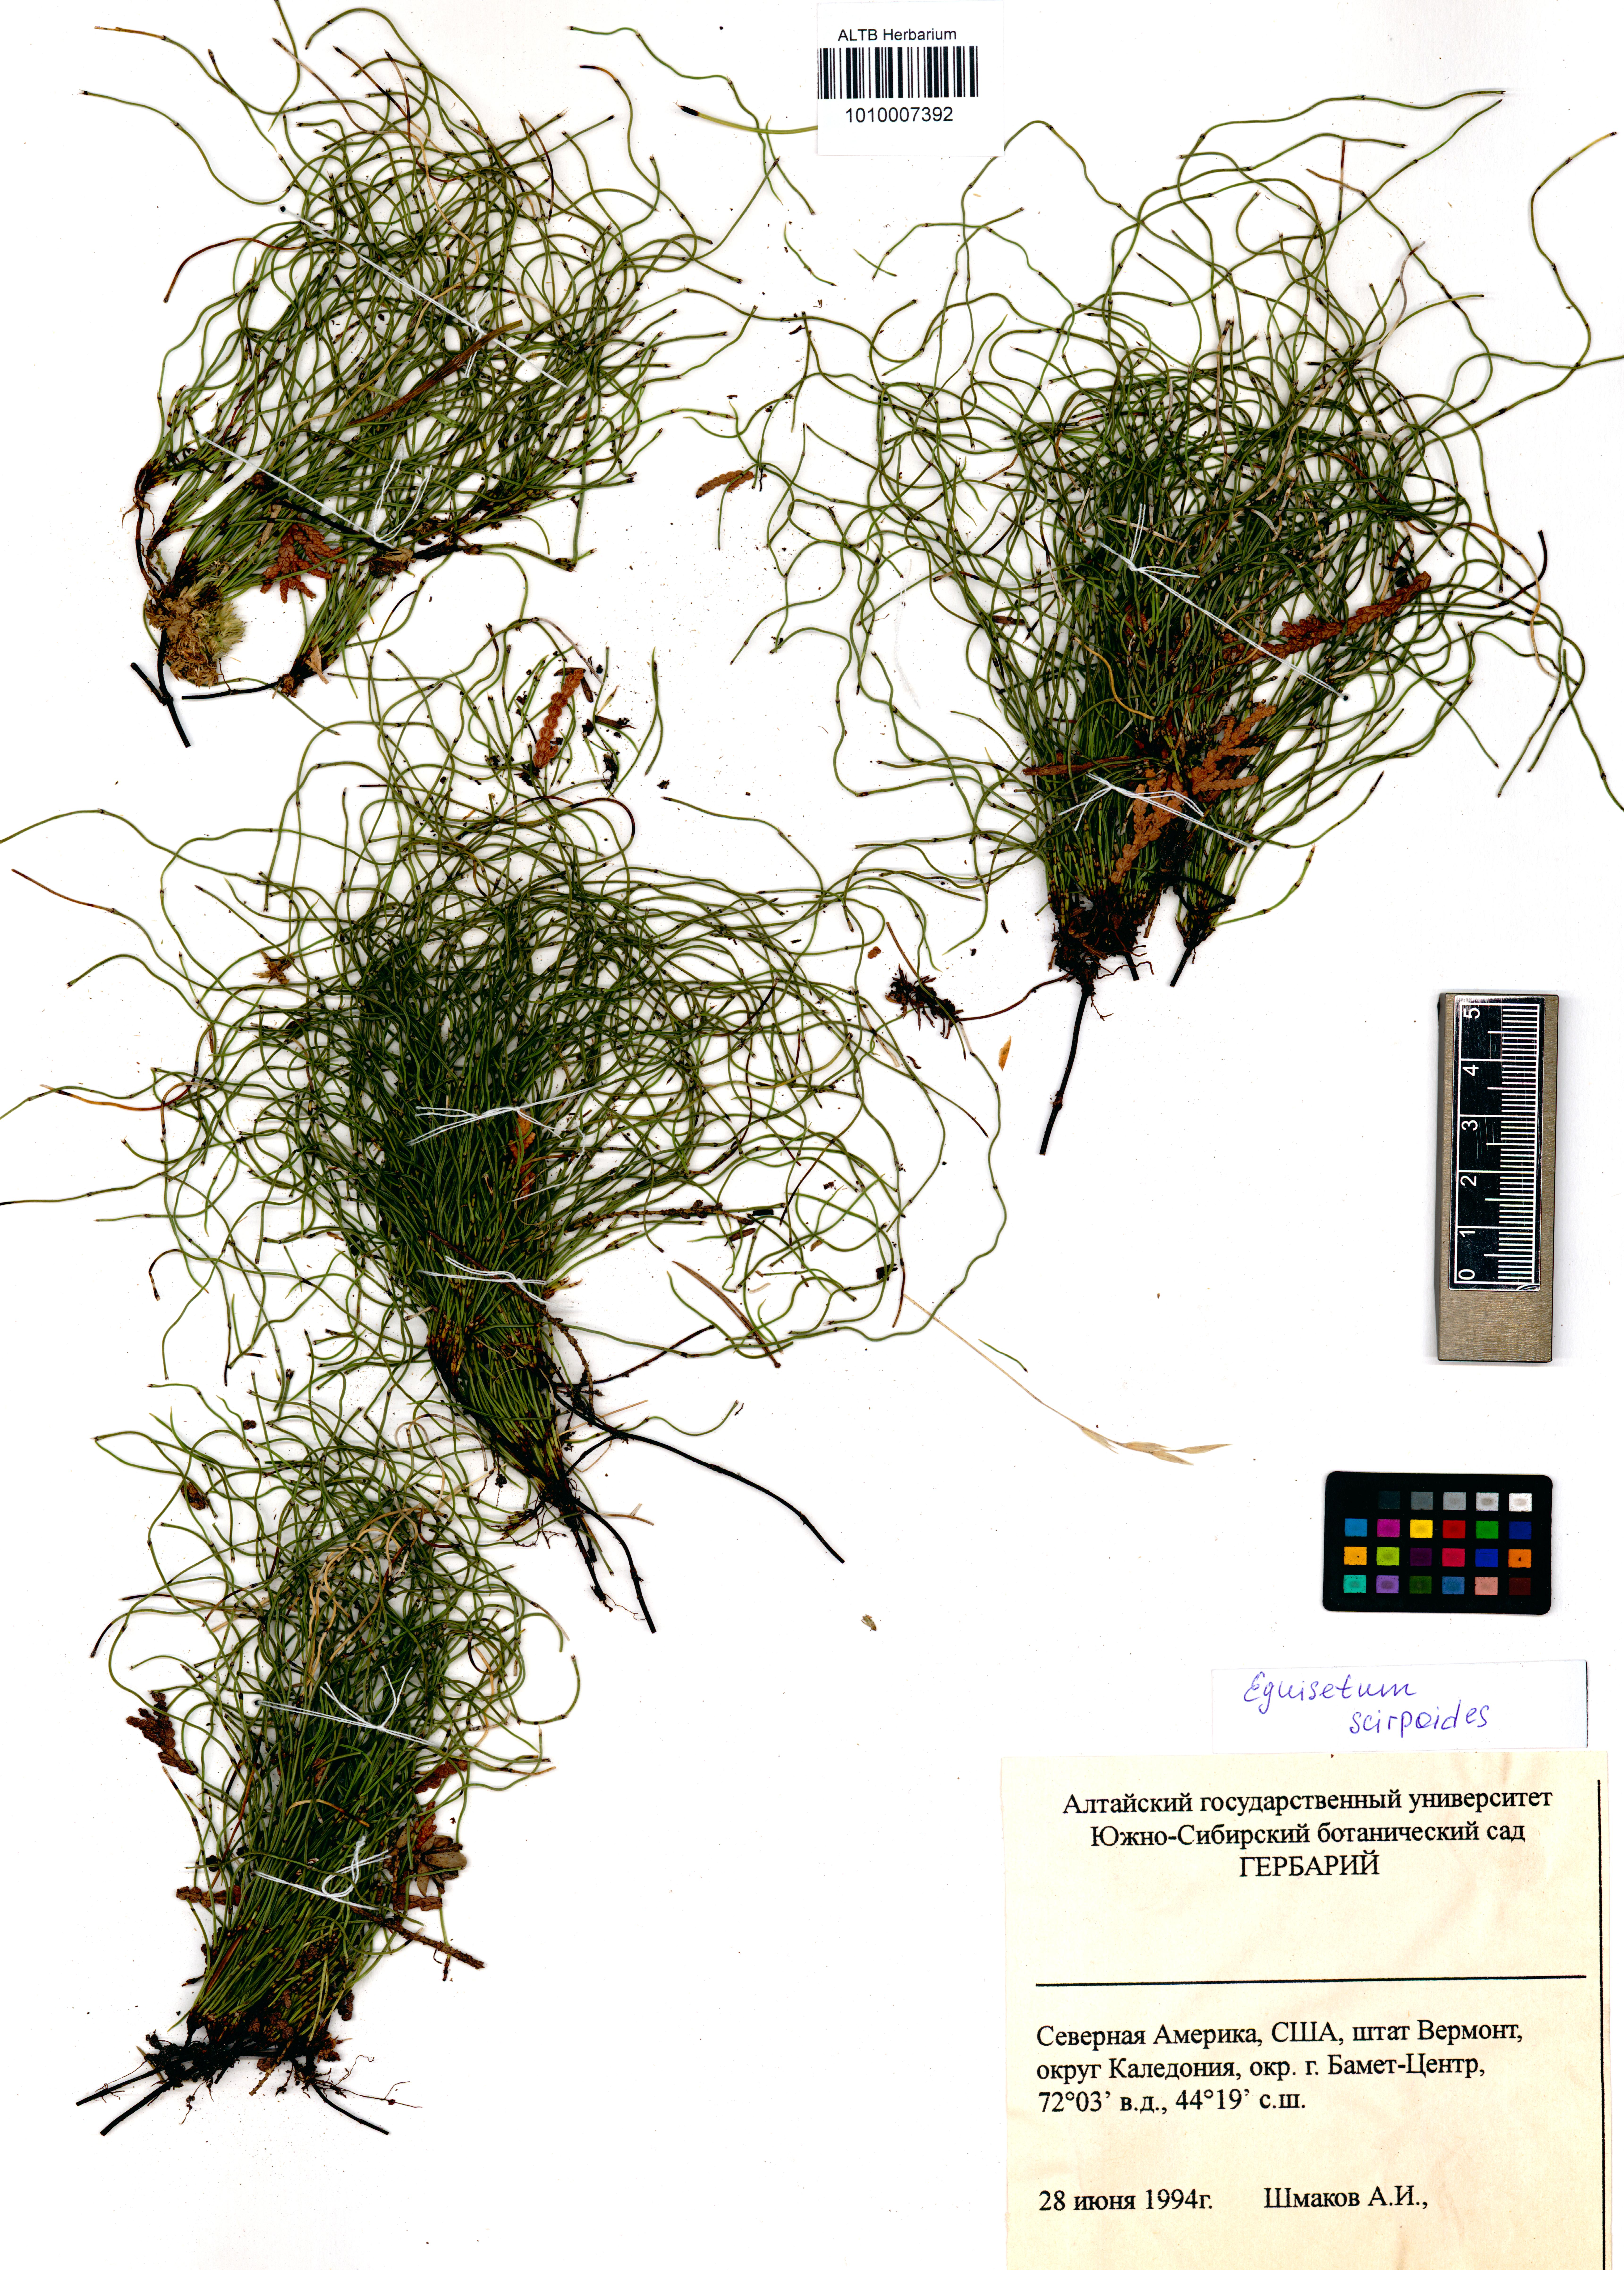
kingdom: Plantae
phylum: Tracheophyta
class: Polypodiopsida
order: Equisetales
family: Equisetaceae
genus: Equisetum
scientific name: Equisetum scirpoides
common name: Delicate horsetail
